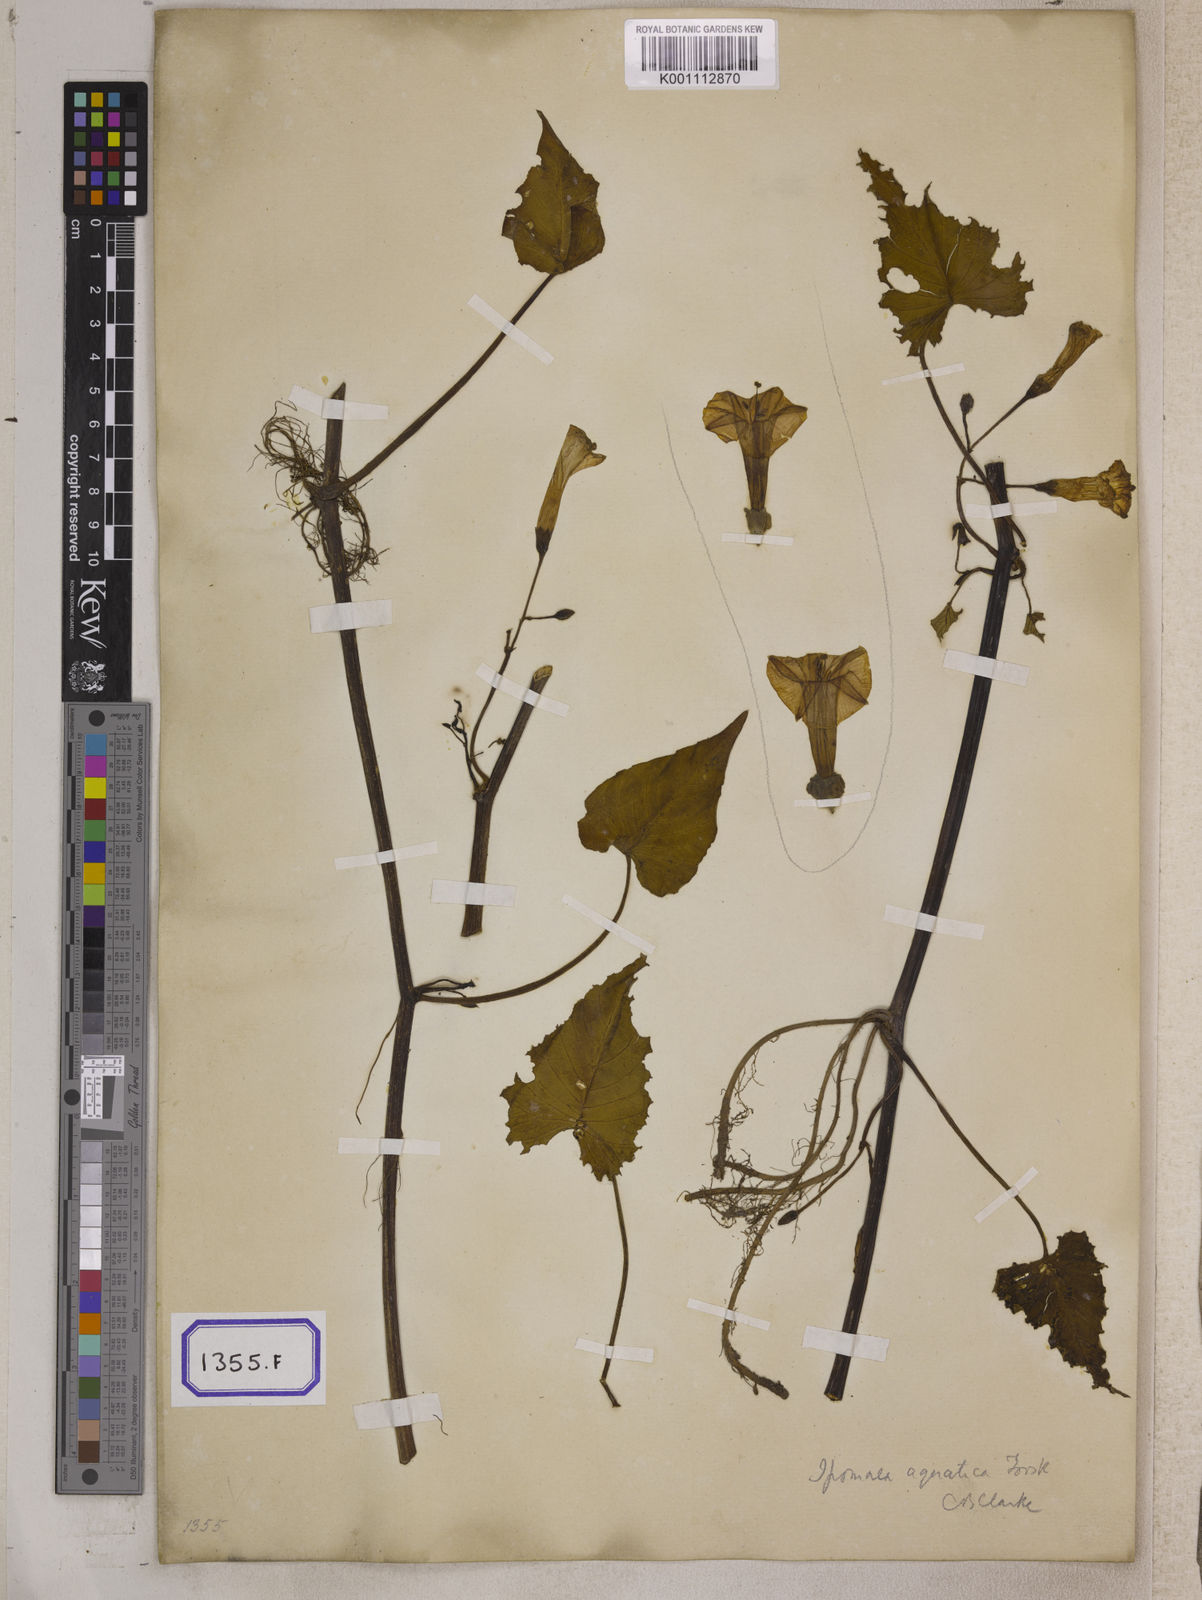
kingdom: Plantae
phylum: Tracheophyta
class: Magnoliopsida
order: Solanales
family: Convolvulaceae
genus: Calystegia
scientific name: Calystegia sepium
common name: Hedge bindweed
